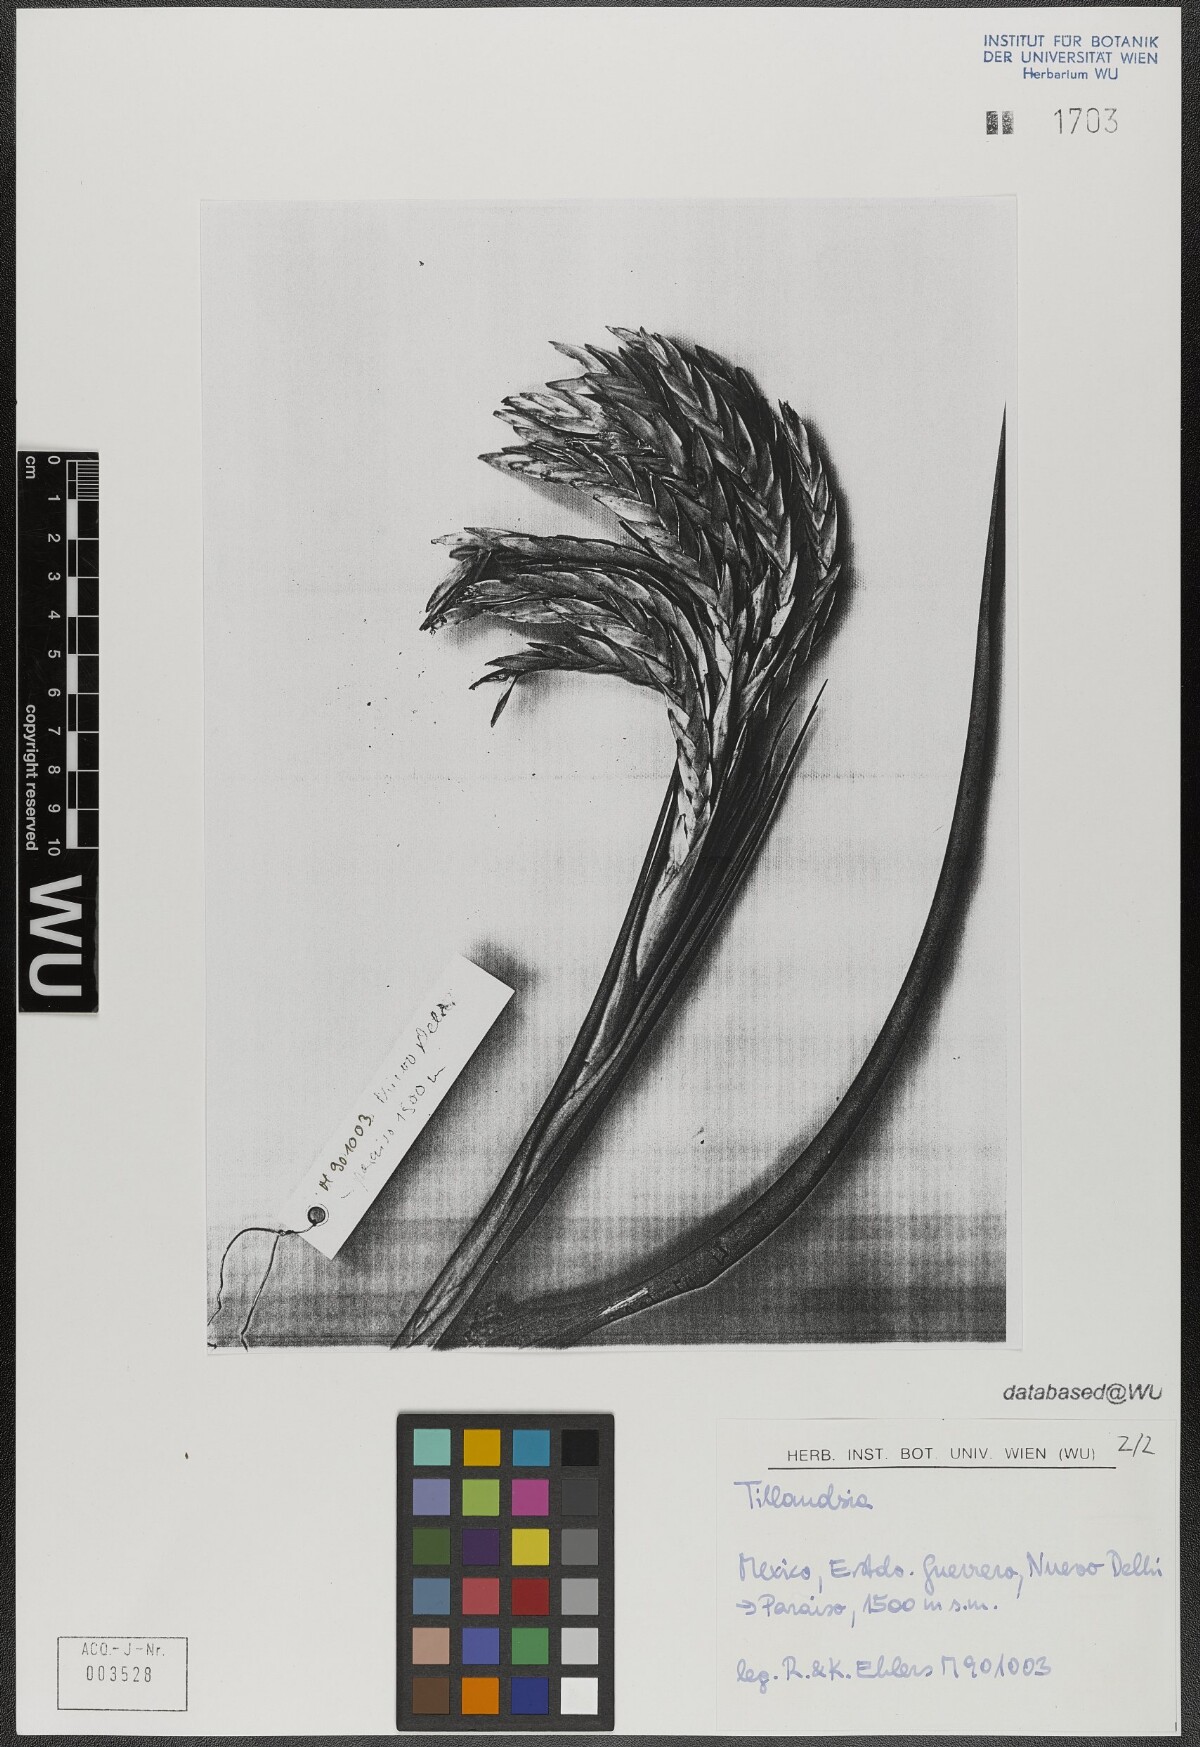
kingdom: Plantae
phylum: Tracheophyta
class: Liliopsida
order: Poales
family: Bromeliaceae
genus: Tillandsia
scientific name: Tillandsia fasciculata
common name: Giant airplant
